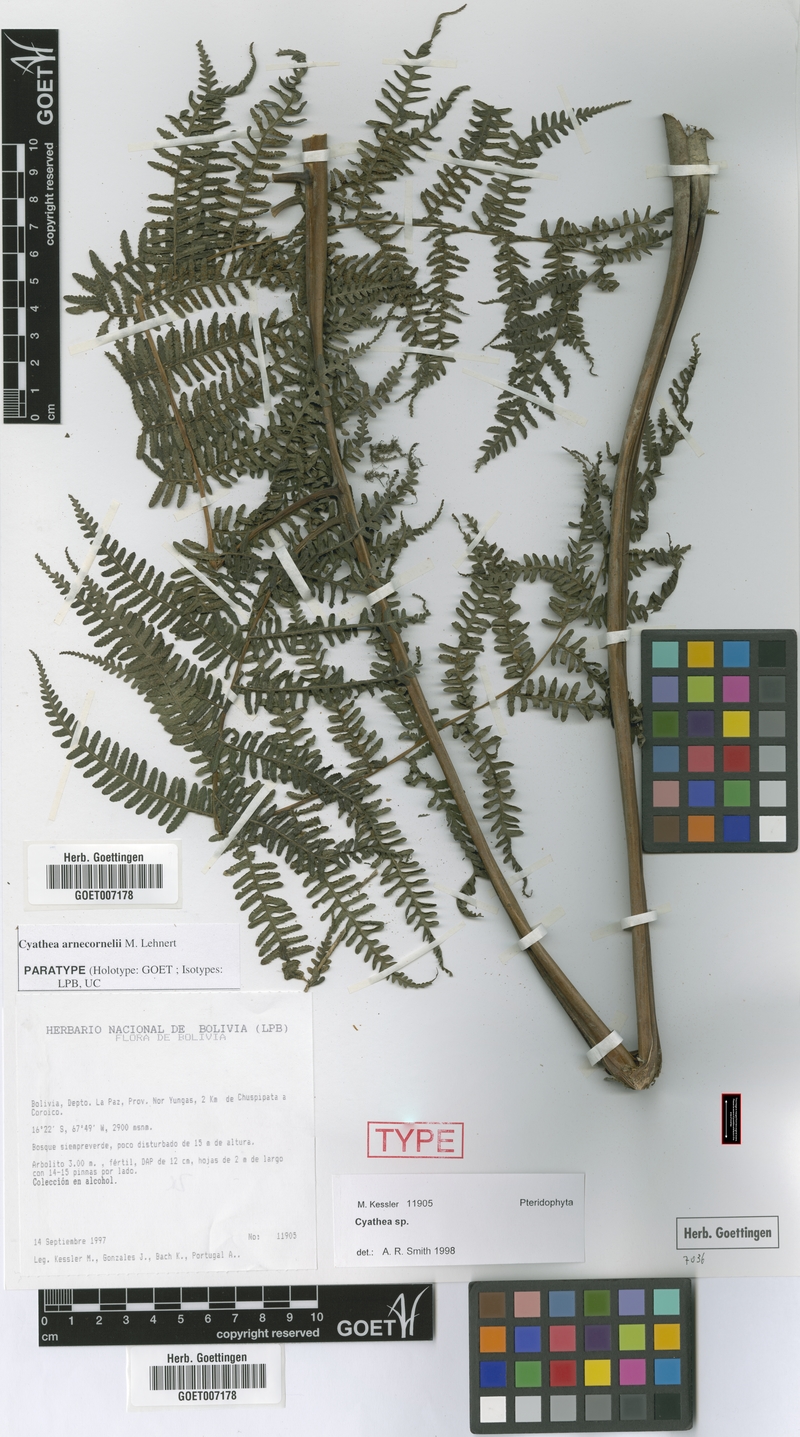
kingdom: Plantae
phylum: Tracheophyta
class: Polypodiopsida
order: Cyatheales
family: Cyatheaceae
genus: Cyathea
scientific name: Cyathea arnecornelii
